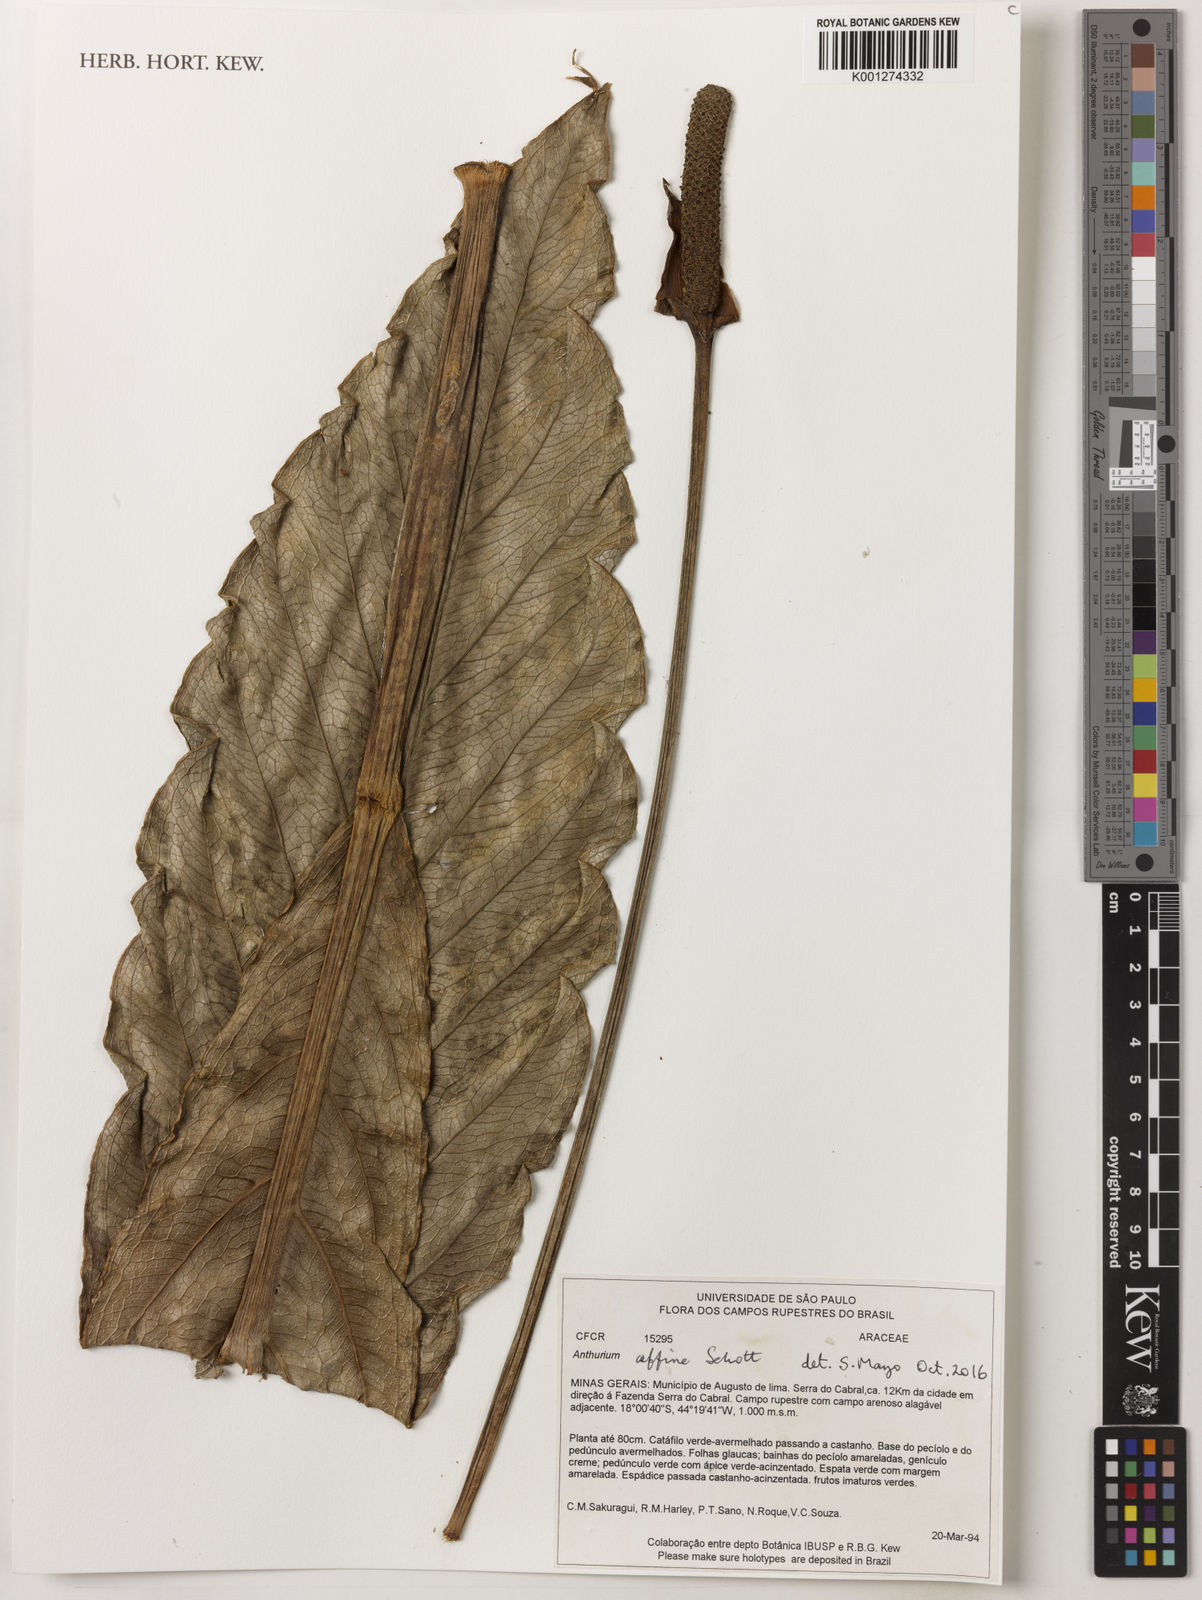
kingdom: Plantae
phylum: Tracheophyta
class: Liliopsida
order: Alismatales
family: Araceae
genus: Anthurium
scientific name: Anthurium affine
